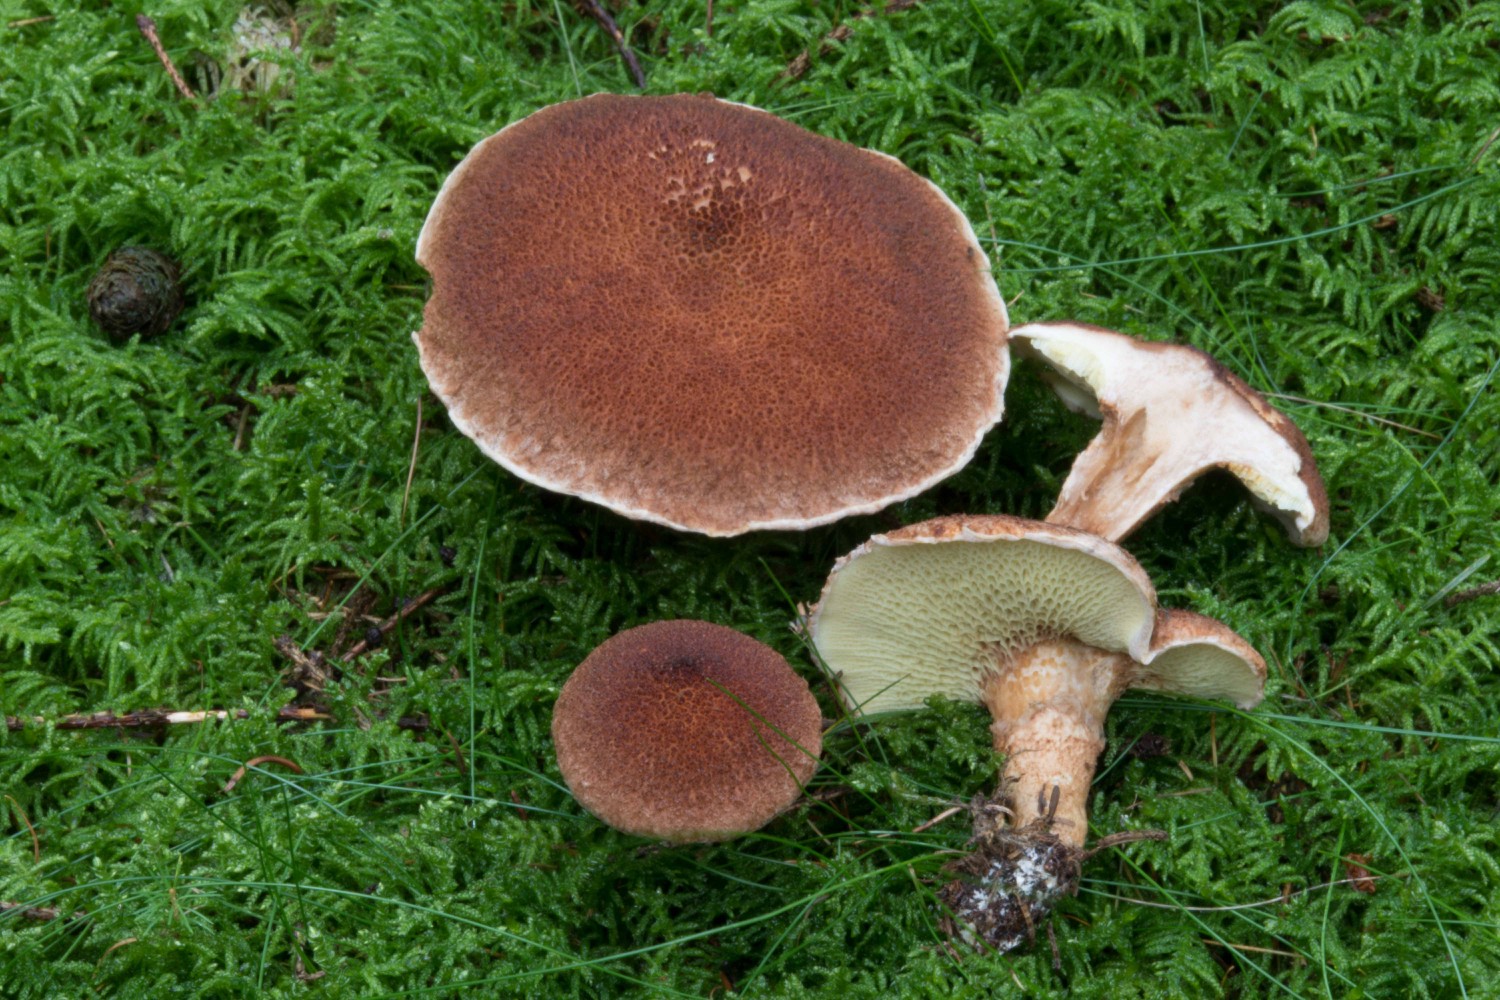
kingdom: Fungi
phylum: Basidiomycota
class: Agaricomycetes
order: Boletales
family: Suillaceae
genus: Suillus
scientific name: Suillus cavipes
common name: hulstokket slimrørhat
